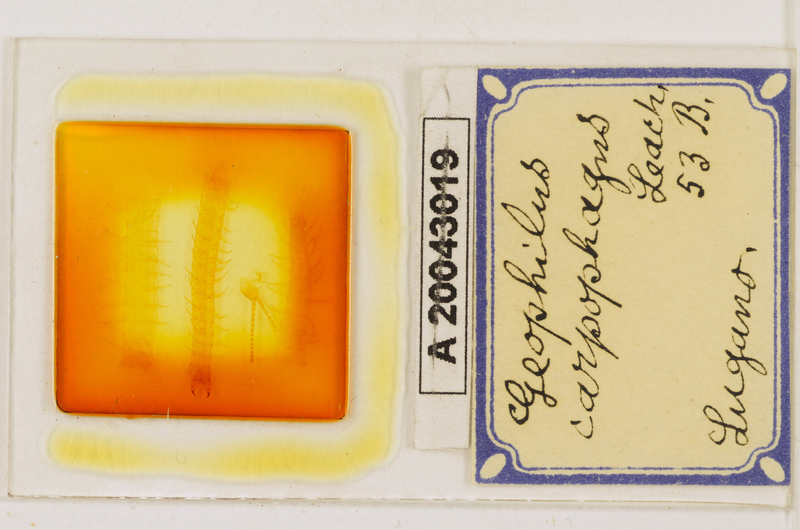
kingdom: Animalia
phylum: Arthropoda
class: Chilopoda
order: Geophilomorpha
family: Geophilidae
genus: Geophilus
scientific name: Geophilus carpophagus
